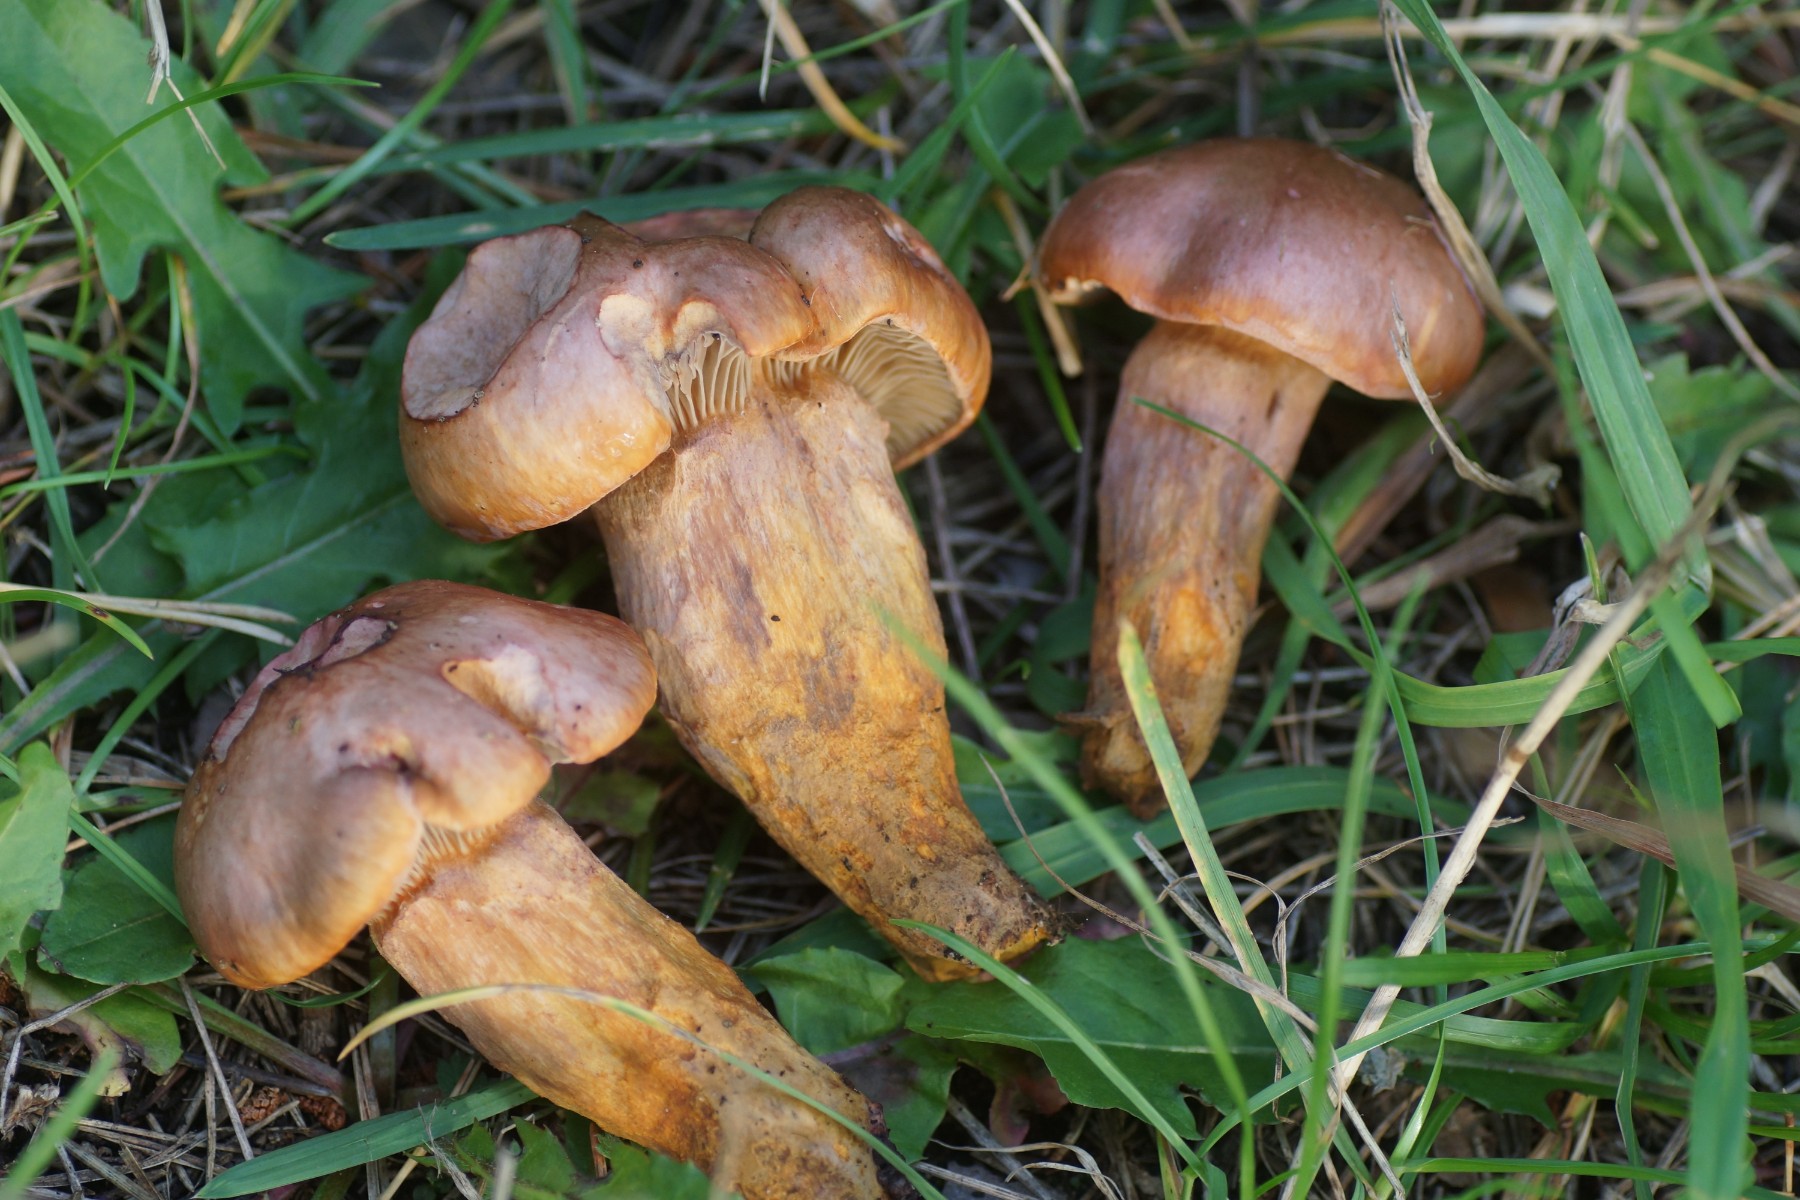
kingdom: Fungi
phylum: Basidiomycota
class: Agaricomycetes
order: Boletales
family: Gomphidiaceae
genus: Chroogomphus
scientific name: Chroogomphus rutilus
